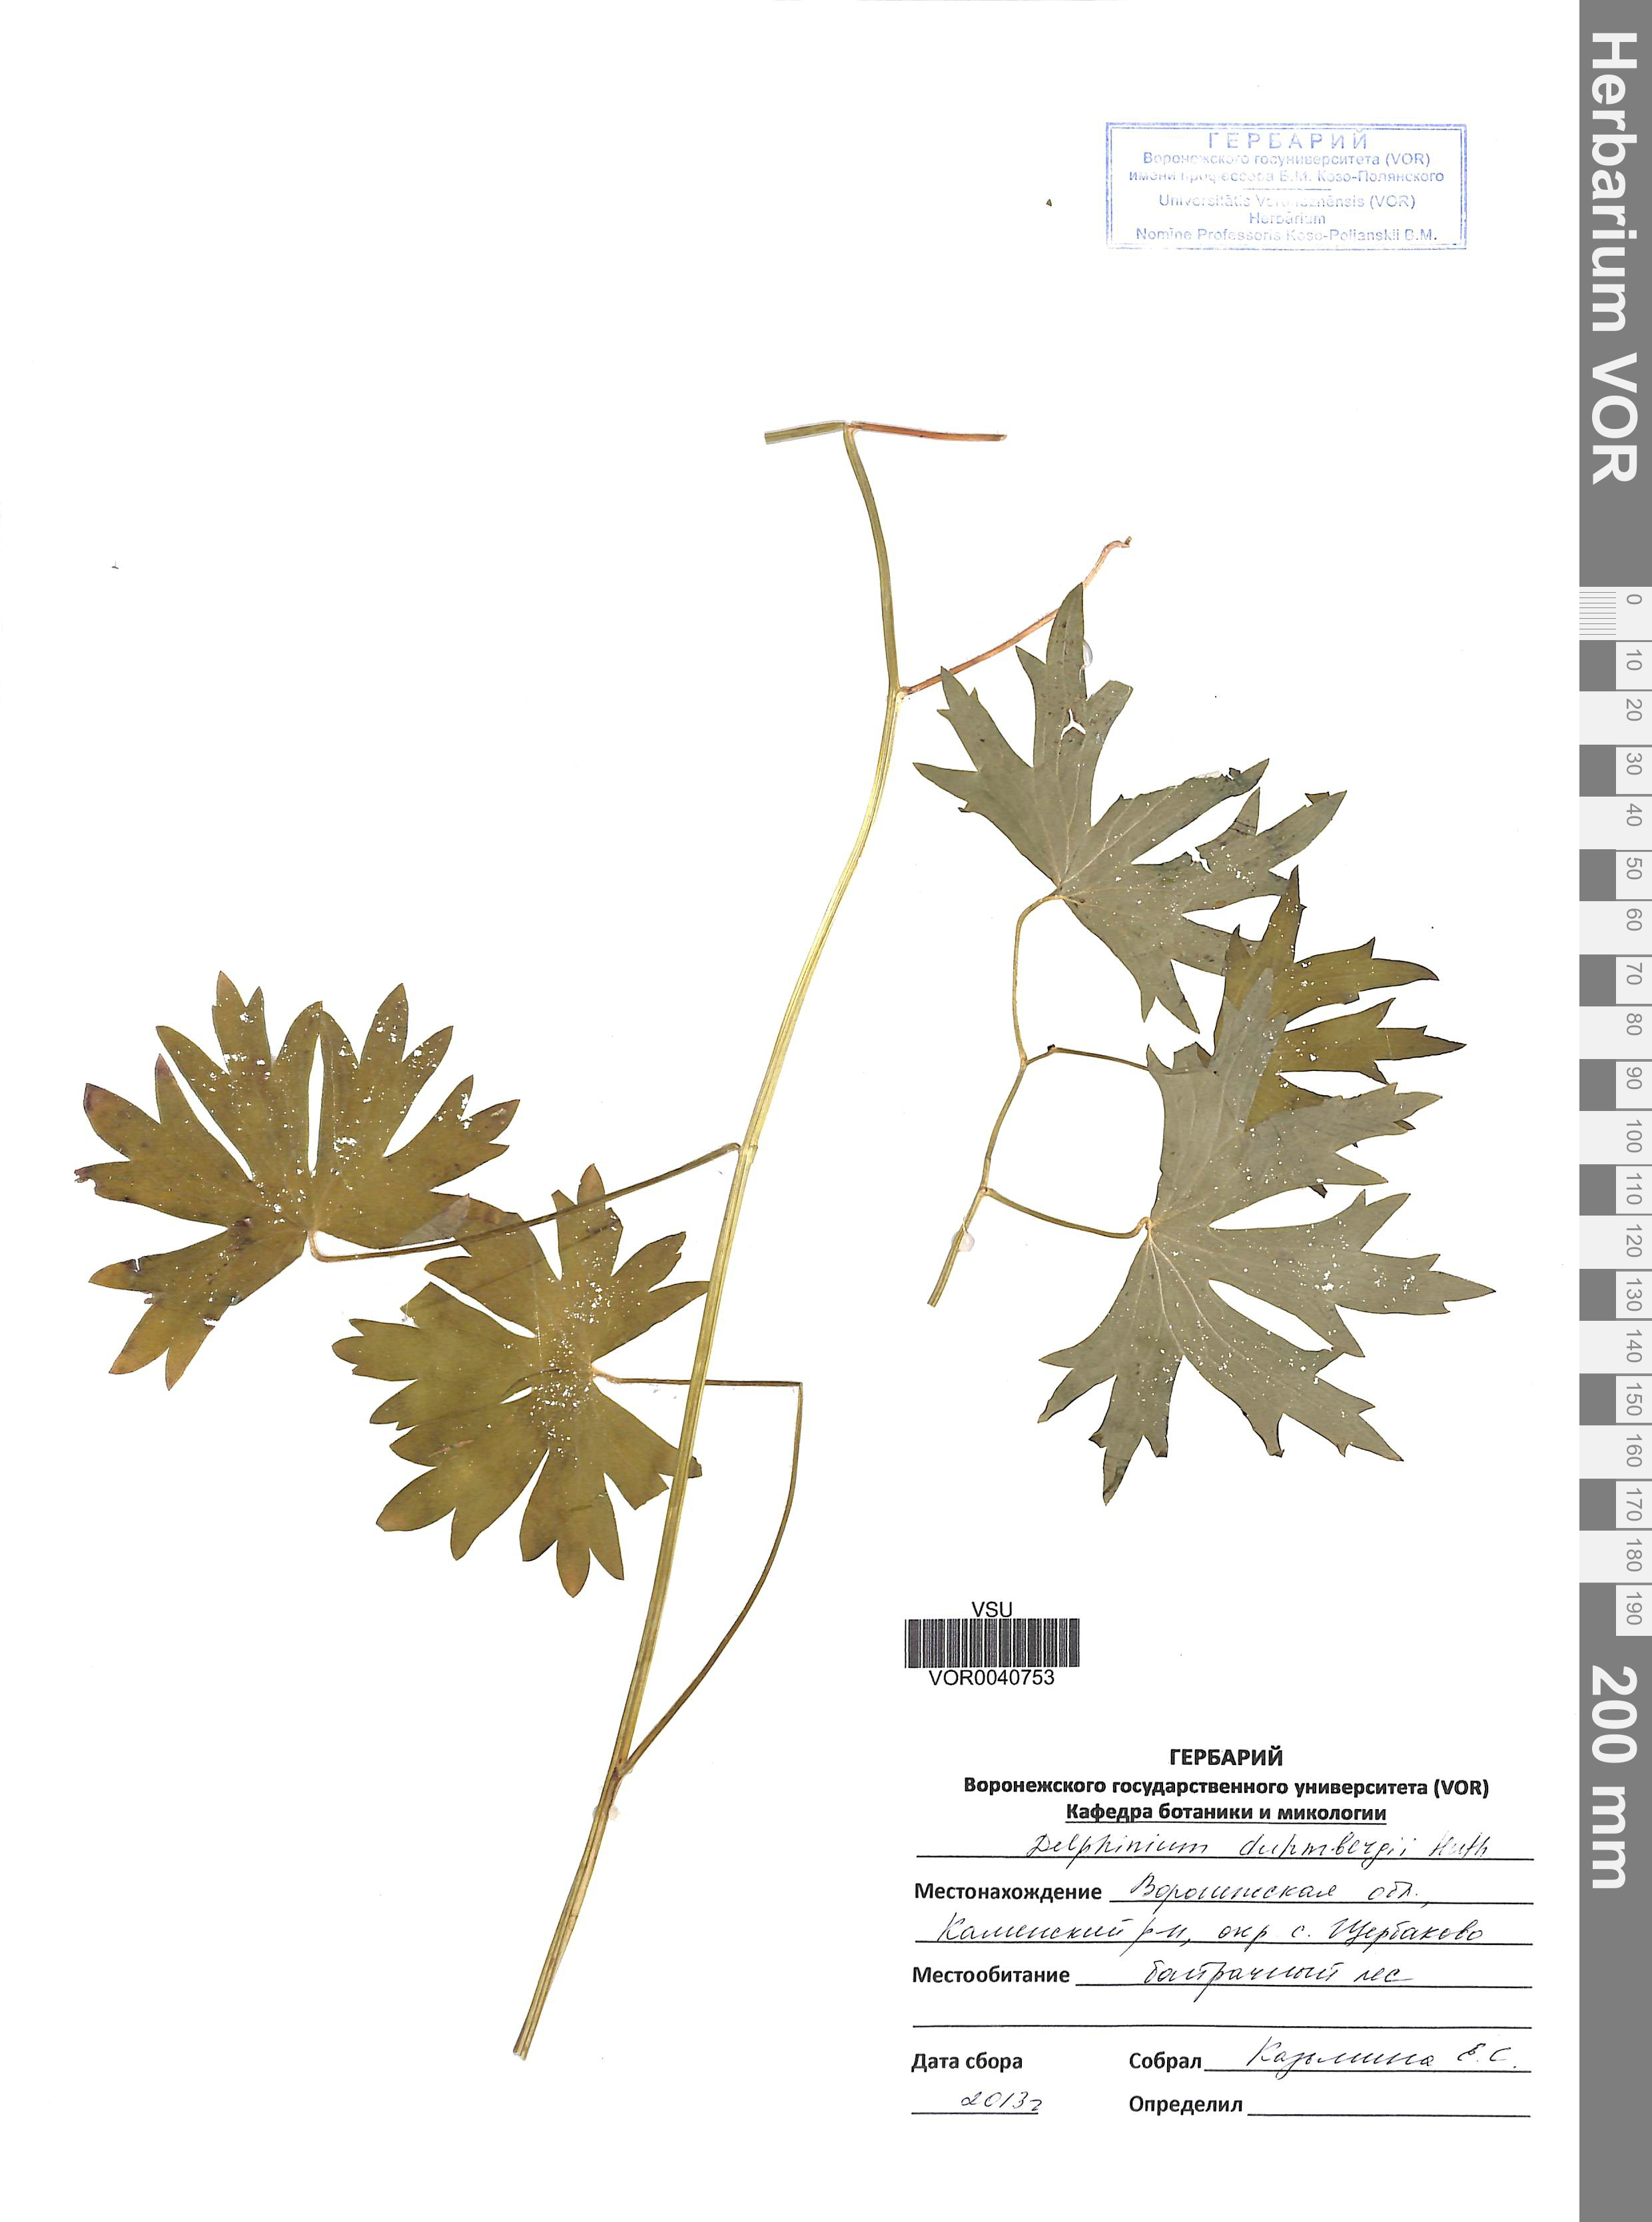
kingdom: Plantae
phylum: Tracheophyta
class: Magnoliopsida
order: Ranunculales
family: Ranunculaceae
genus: Delphinium
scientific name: Delphinium corymbosum
